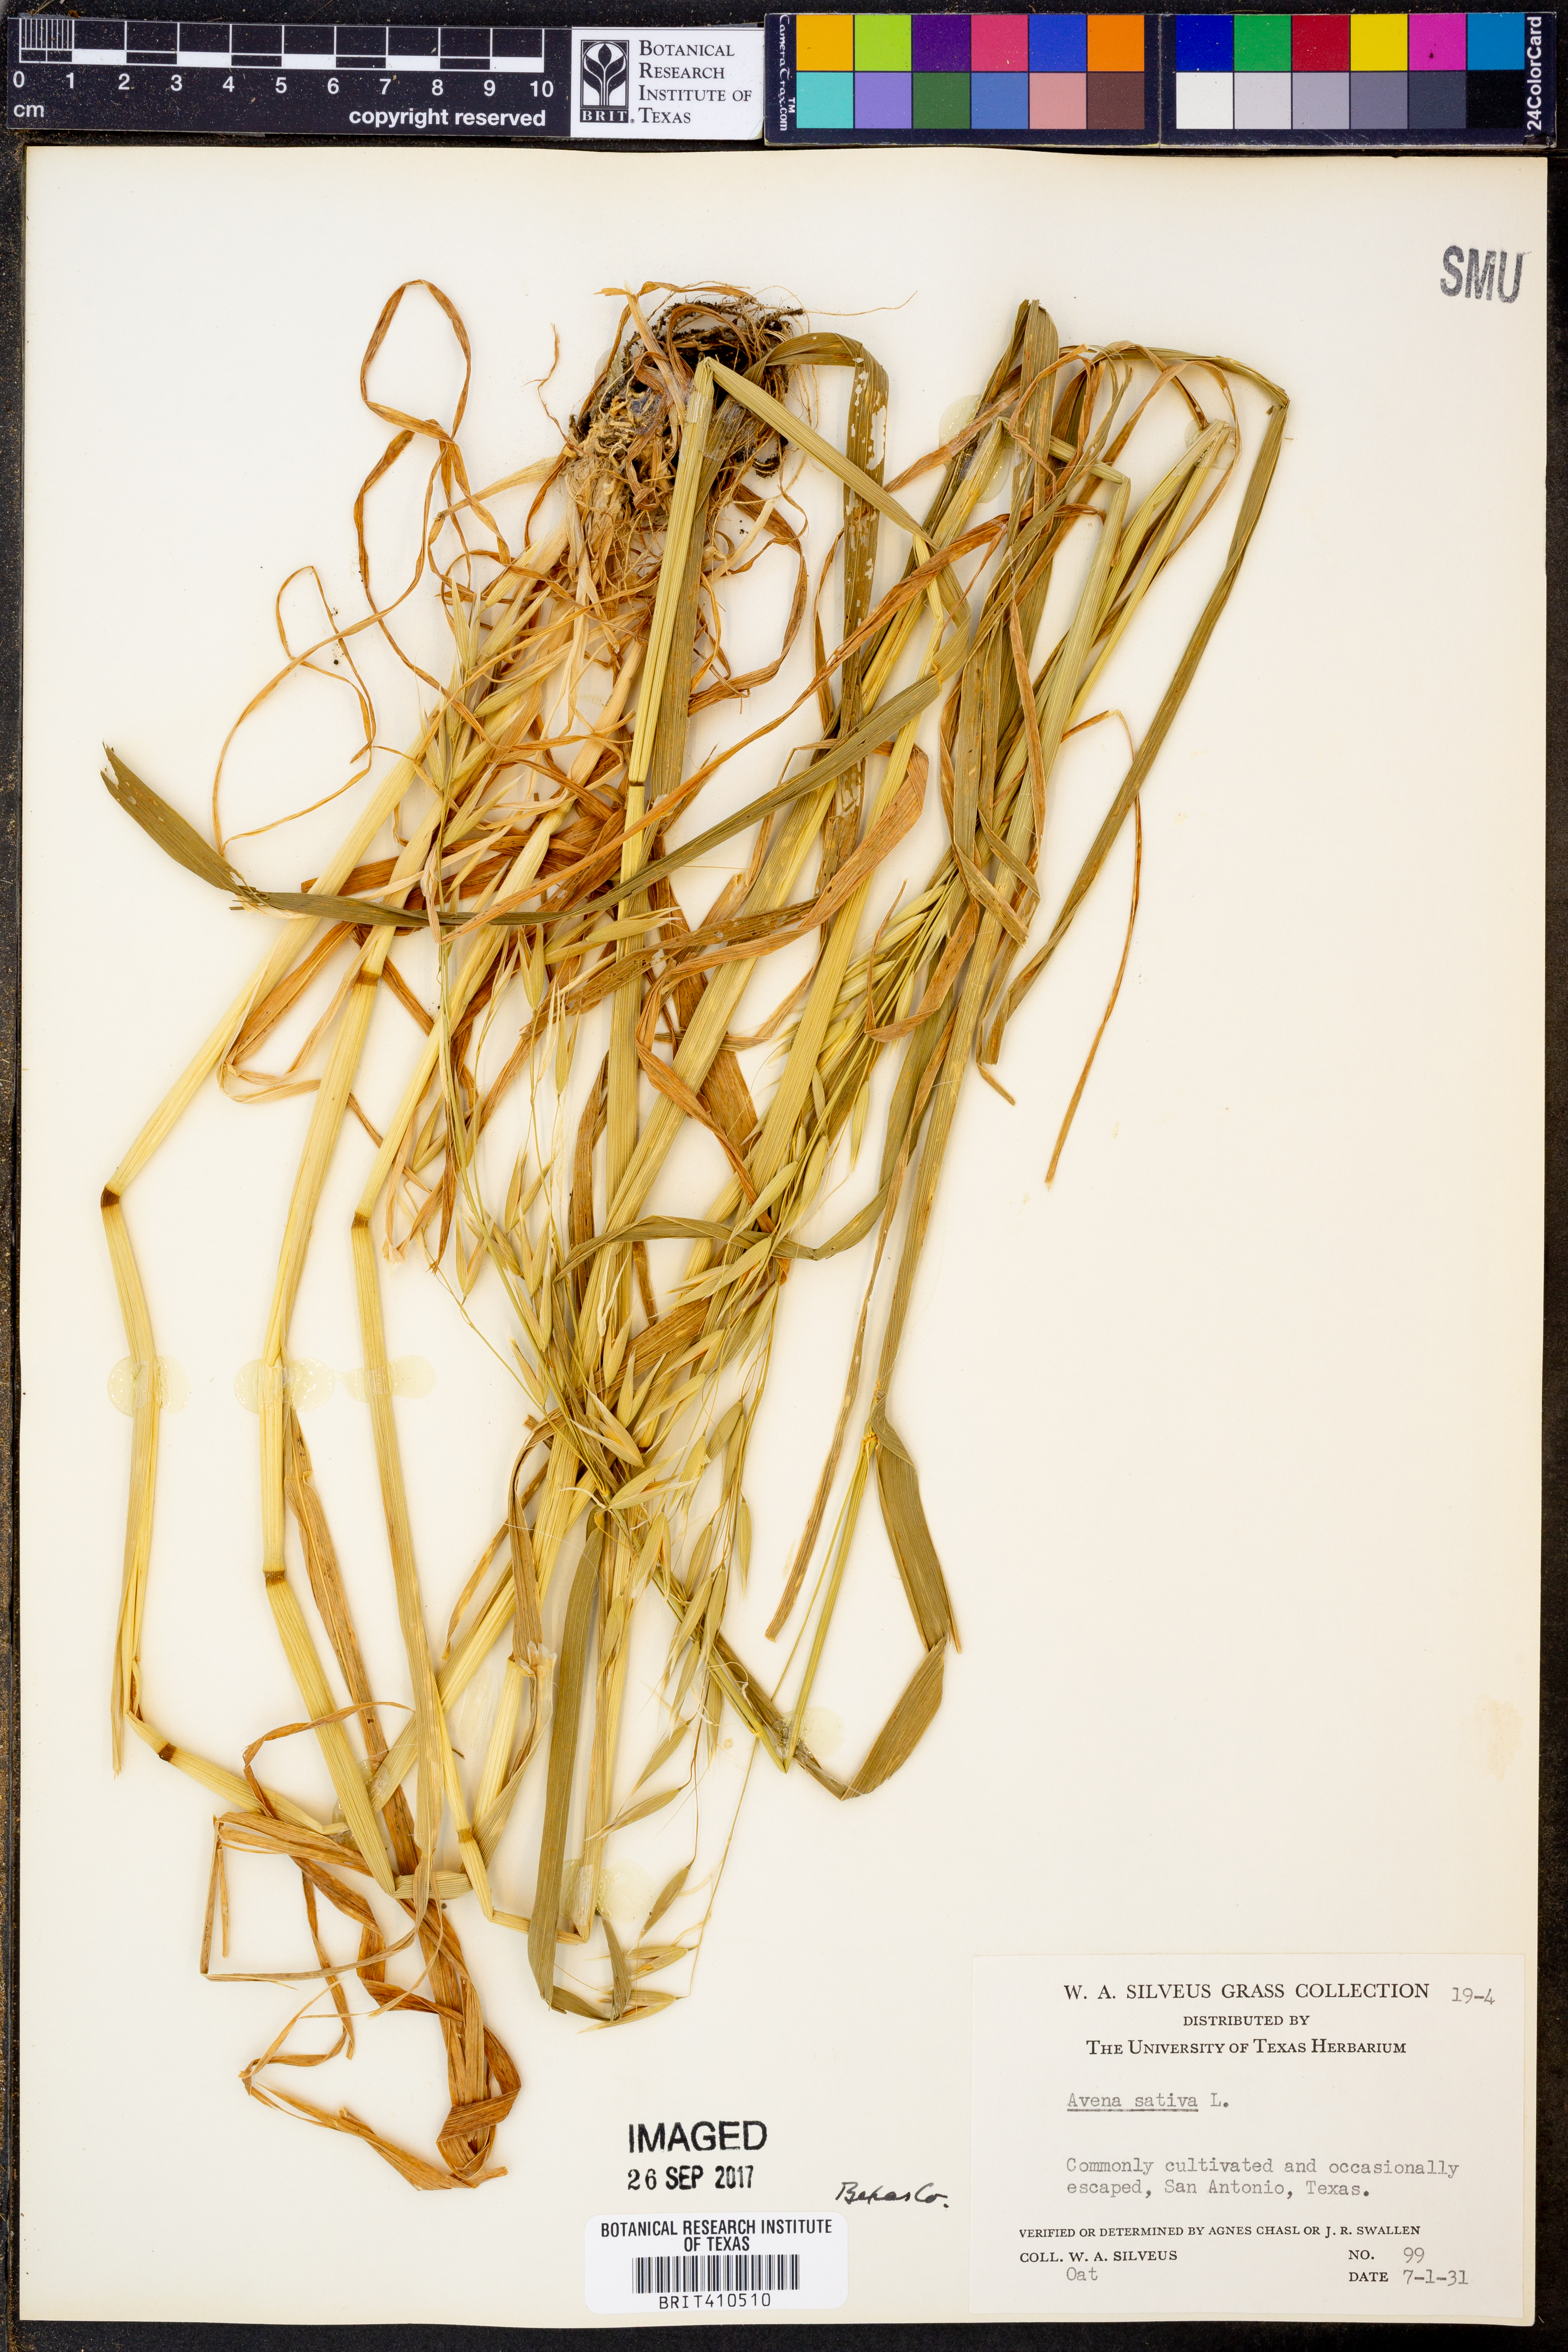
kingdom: Plantae
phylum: Tracheophyta
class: Liliopsida
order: Poales
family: Poaceae
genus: Avena
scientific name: Avena sativa
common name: Oat
